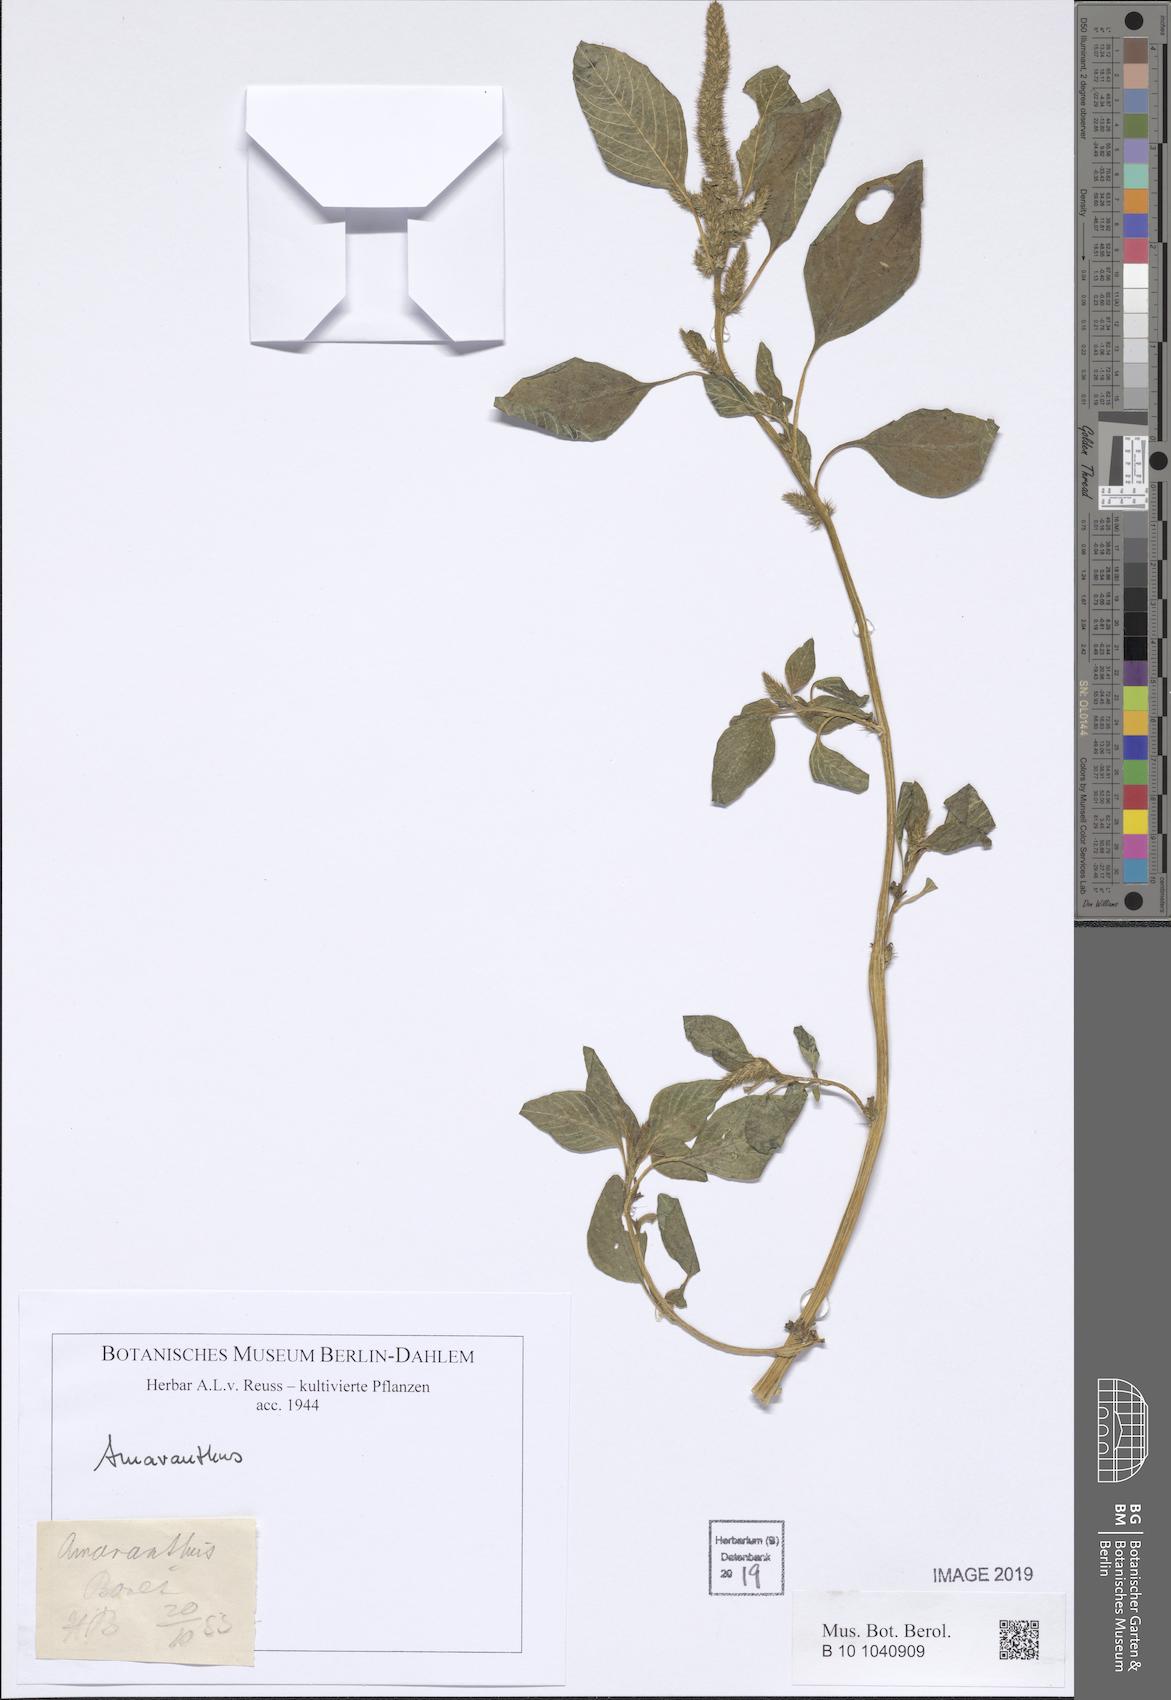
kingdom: Plantae
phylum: Tracheophyta
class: Magnoliopsida
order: Caryophyllales
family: Amaranthaceae
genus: Amaranthus
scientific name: Amaranthus
